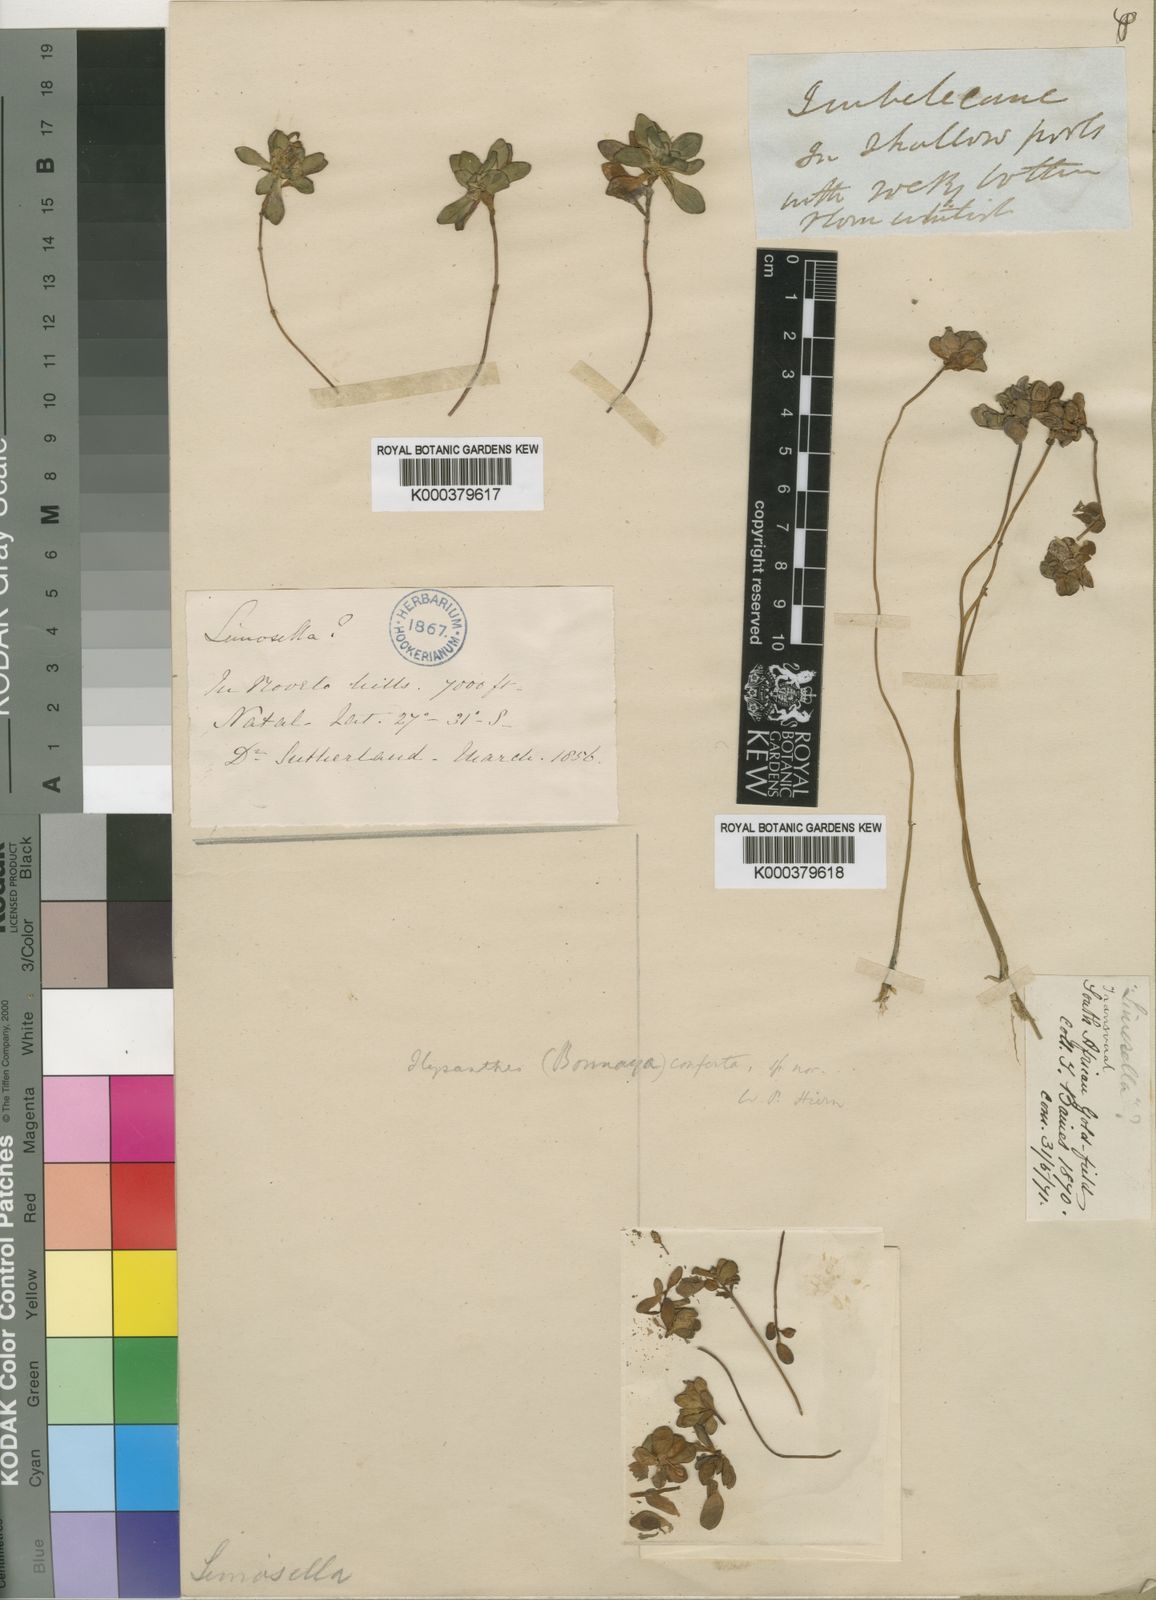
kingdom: Plantae
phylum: Tracheophyta
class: Magnoliopsida
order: Lamiales
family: Linderniaceae
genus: Lindernia
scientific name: Lindernia conferta
